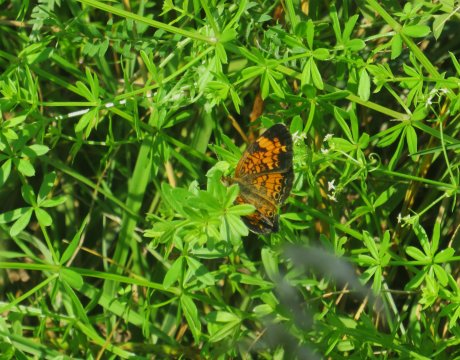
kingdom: Animalia
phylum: Arthropoda
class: Insecta
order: Lepidoptera
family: Nymphalidae
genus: Phyciodes
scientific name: Phyciodes tharos
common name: Pearl Crescent
